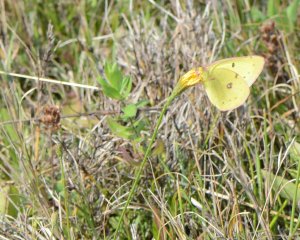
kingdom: Animalia
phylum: Arthropoda
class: Insecta
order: Lepidoptera
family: Pieridae
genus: Colias
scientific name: Colias philodice
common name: Clouded Sulphur
